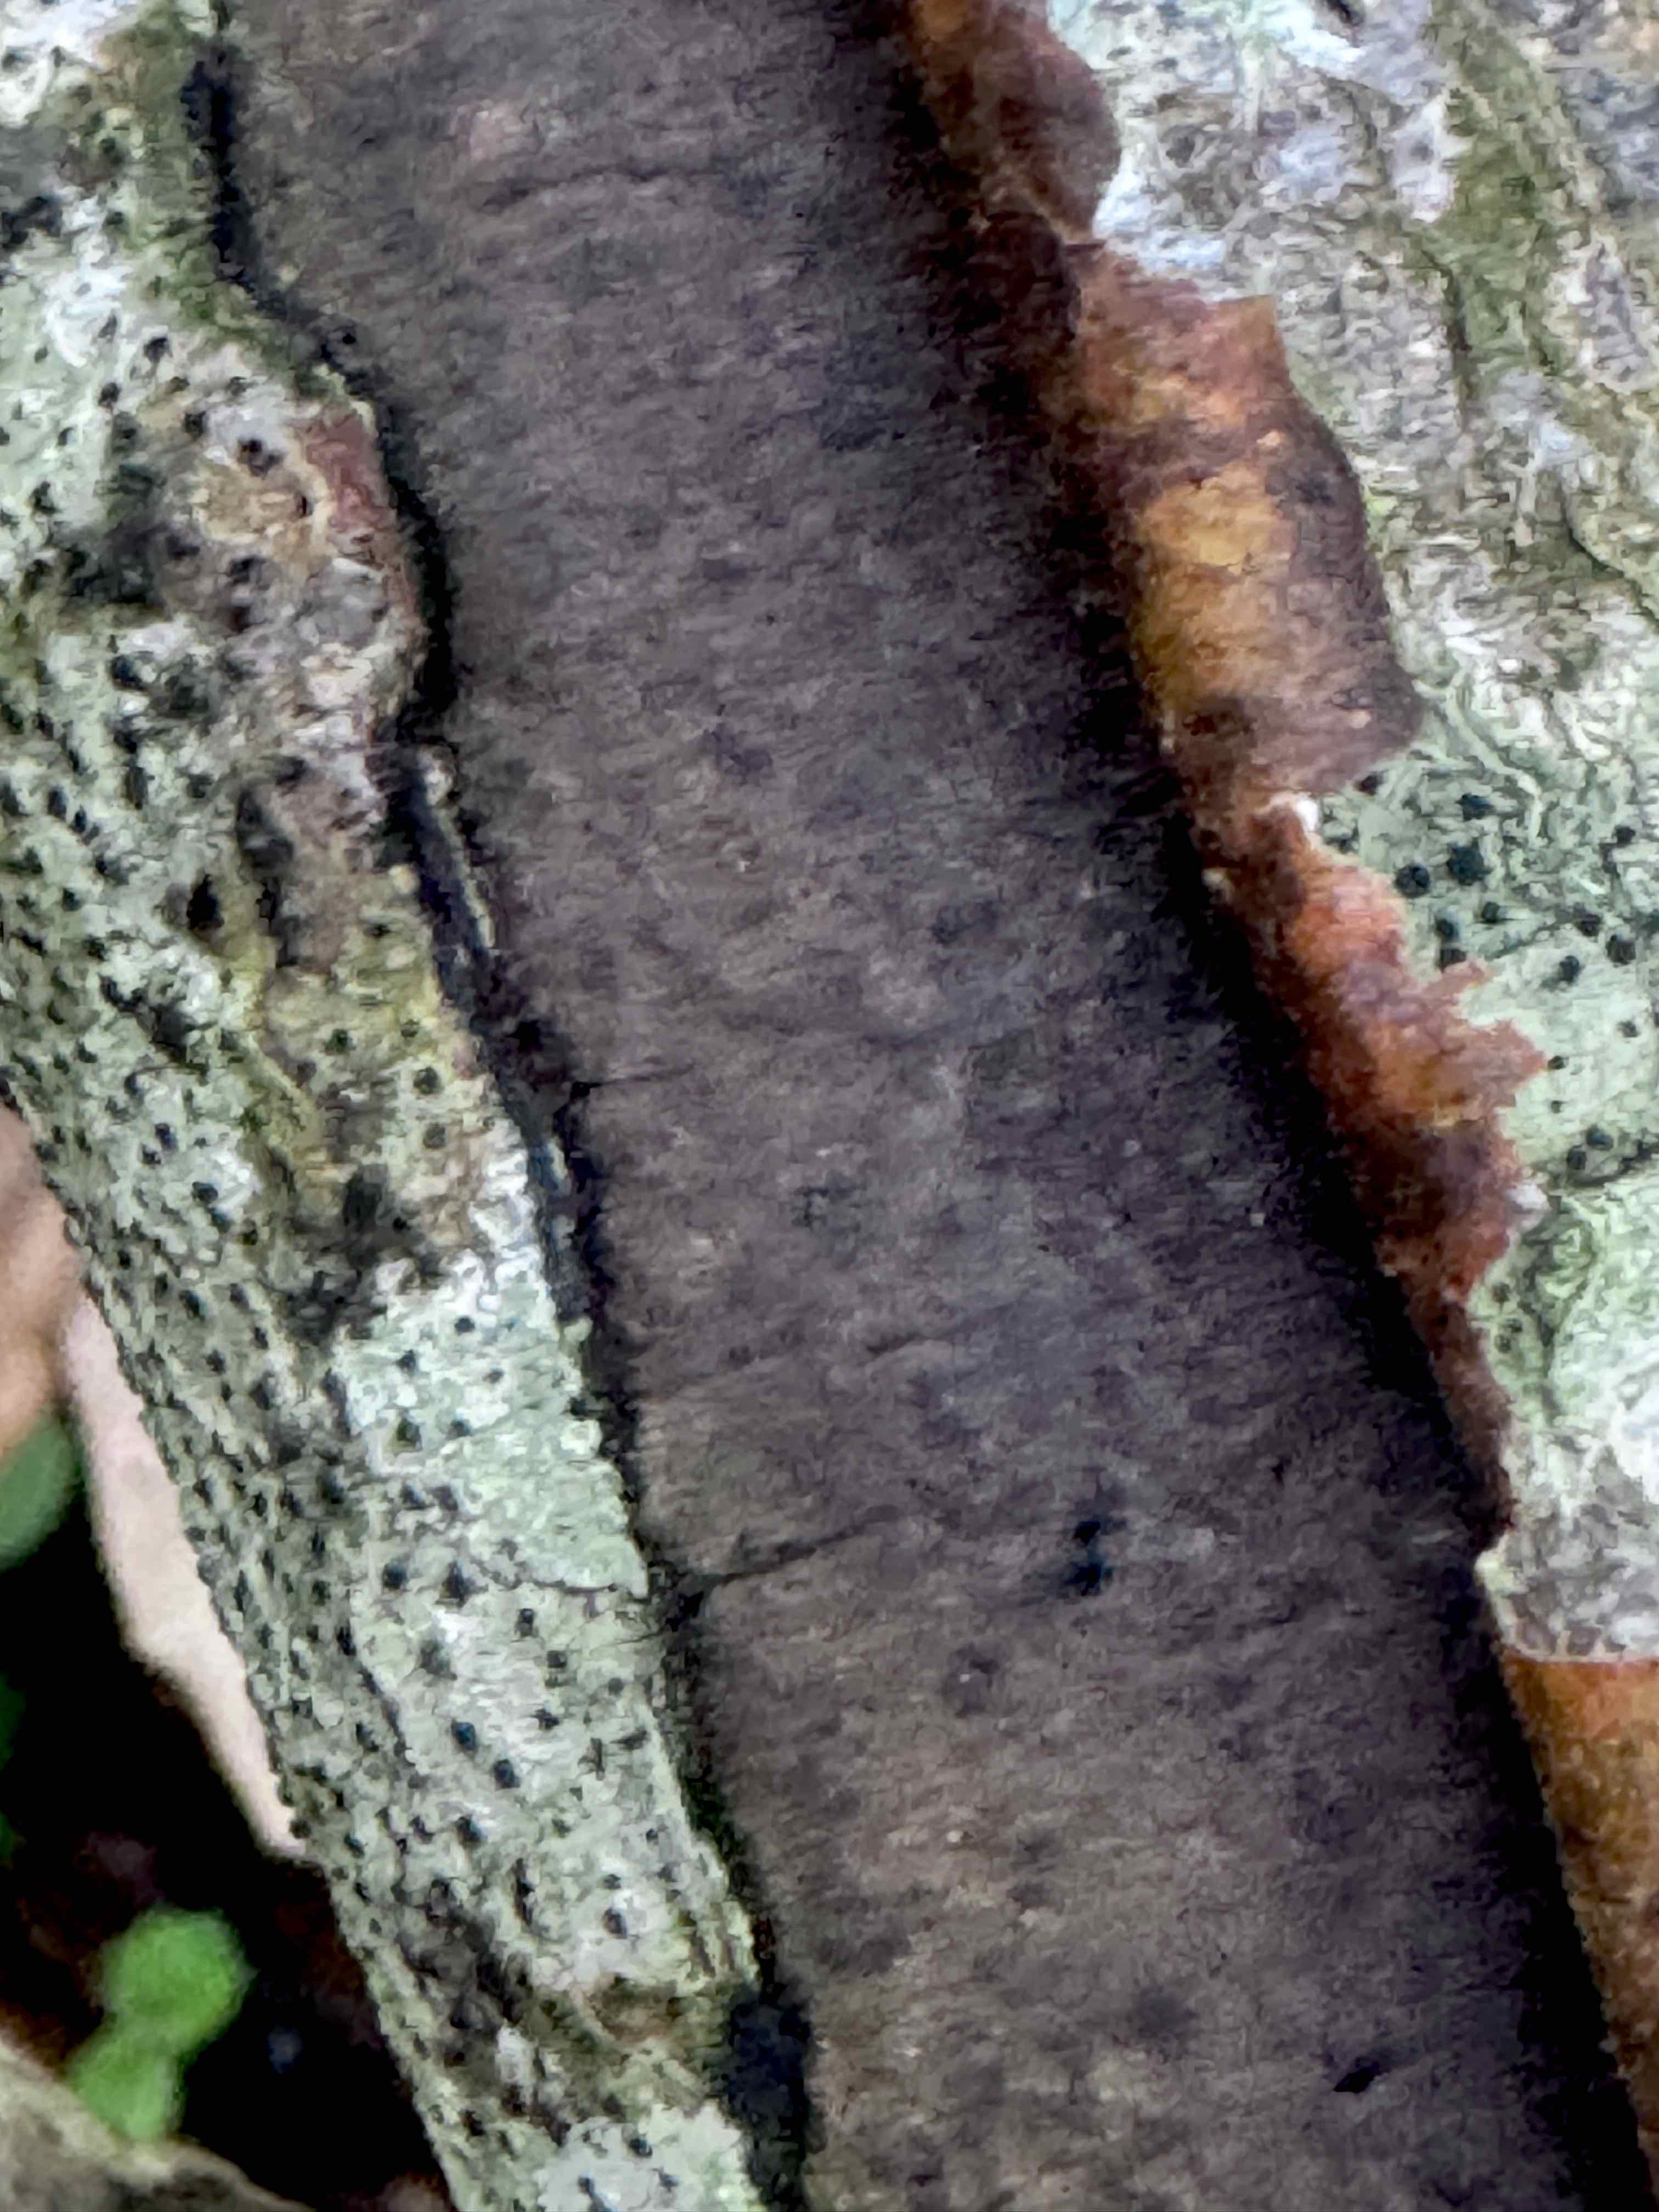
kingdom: Fungi
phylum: Ascomycota
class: Sordariomycetes
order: Xylariales
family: Diatrypaceae
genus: Diatrype
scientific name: Diatrype decorticata
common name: barksprænger-kulskorpe
